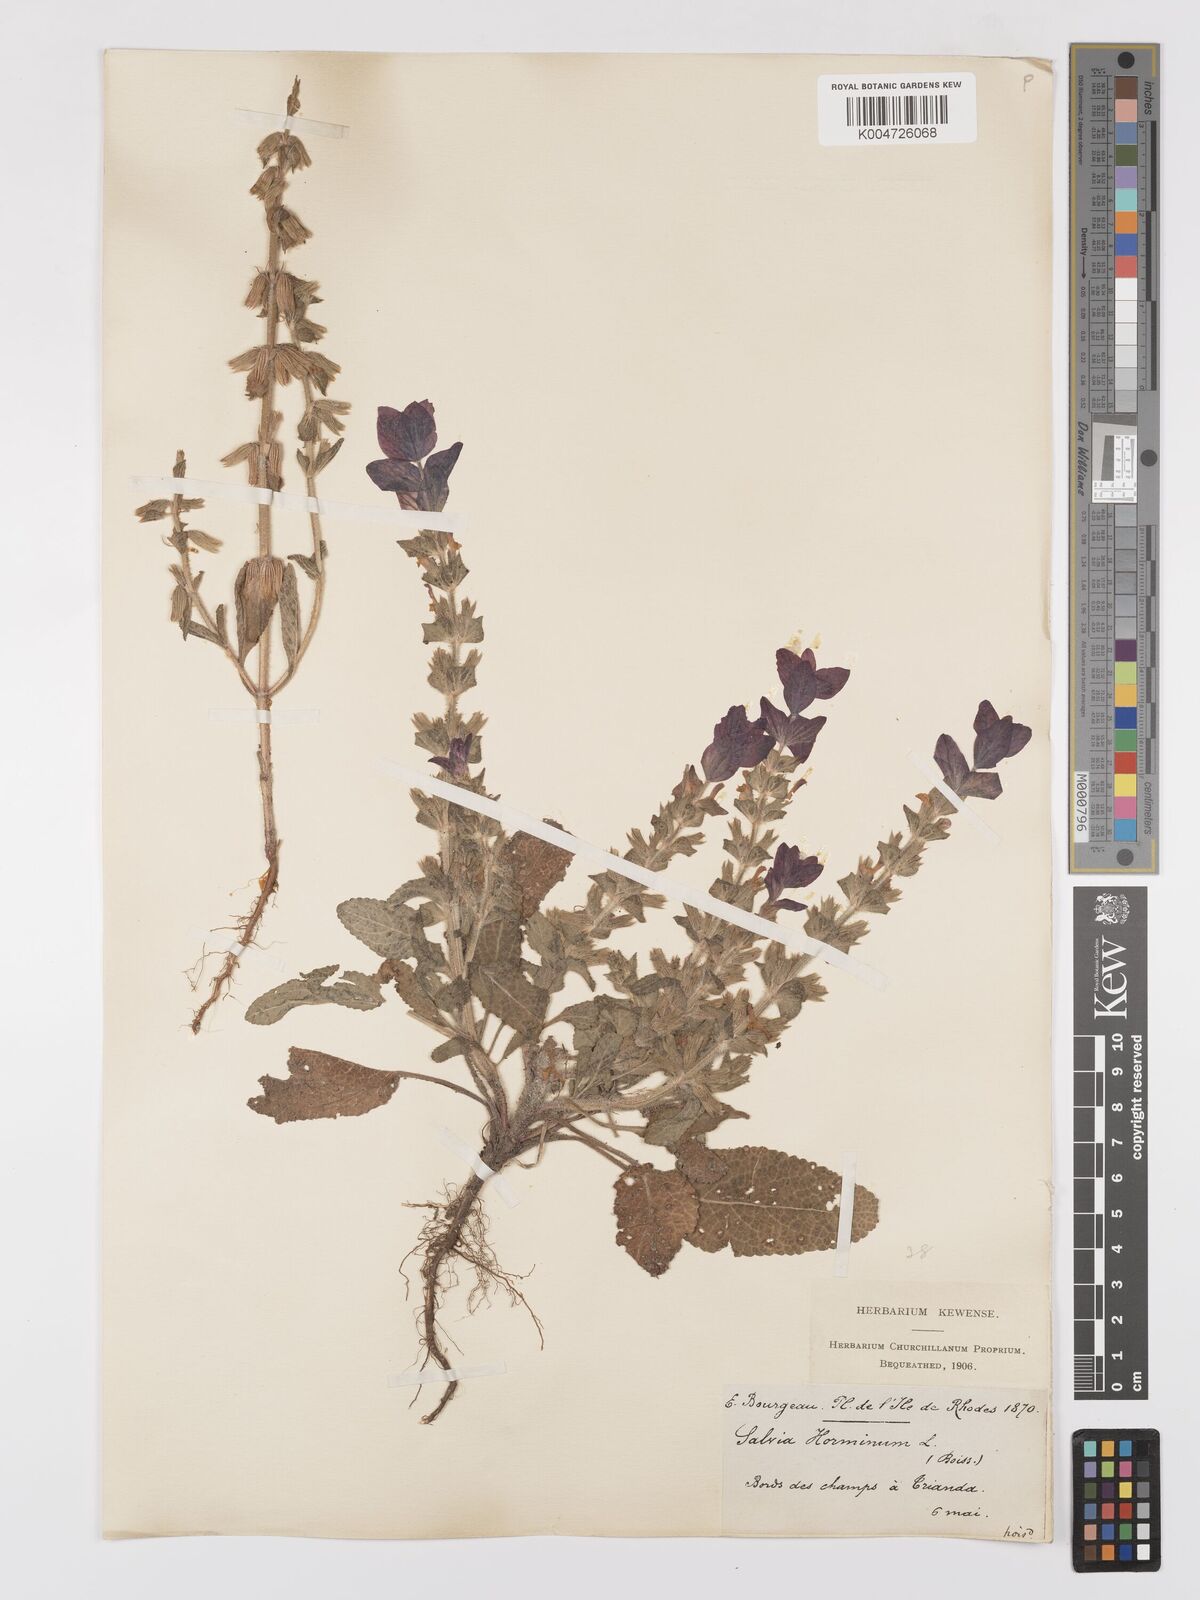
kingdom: Plantae
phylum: Tracheophyta
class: Magnoliopsida
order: Lamiales
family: Lamiaceae
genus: Salvia
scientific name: Salvia viridis
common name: Annual clary
